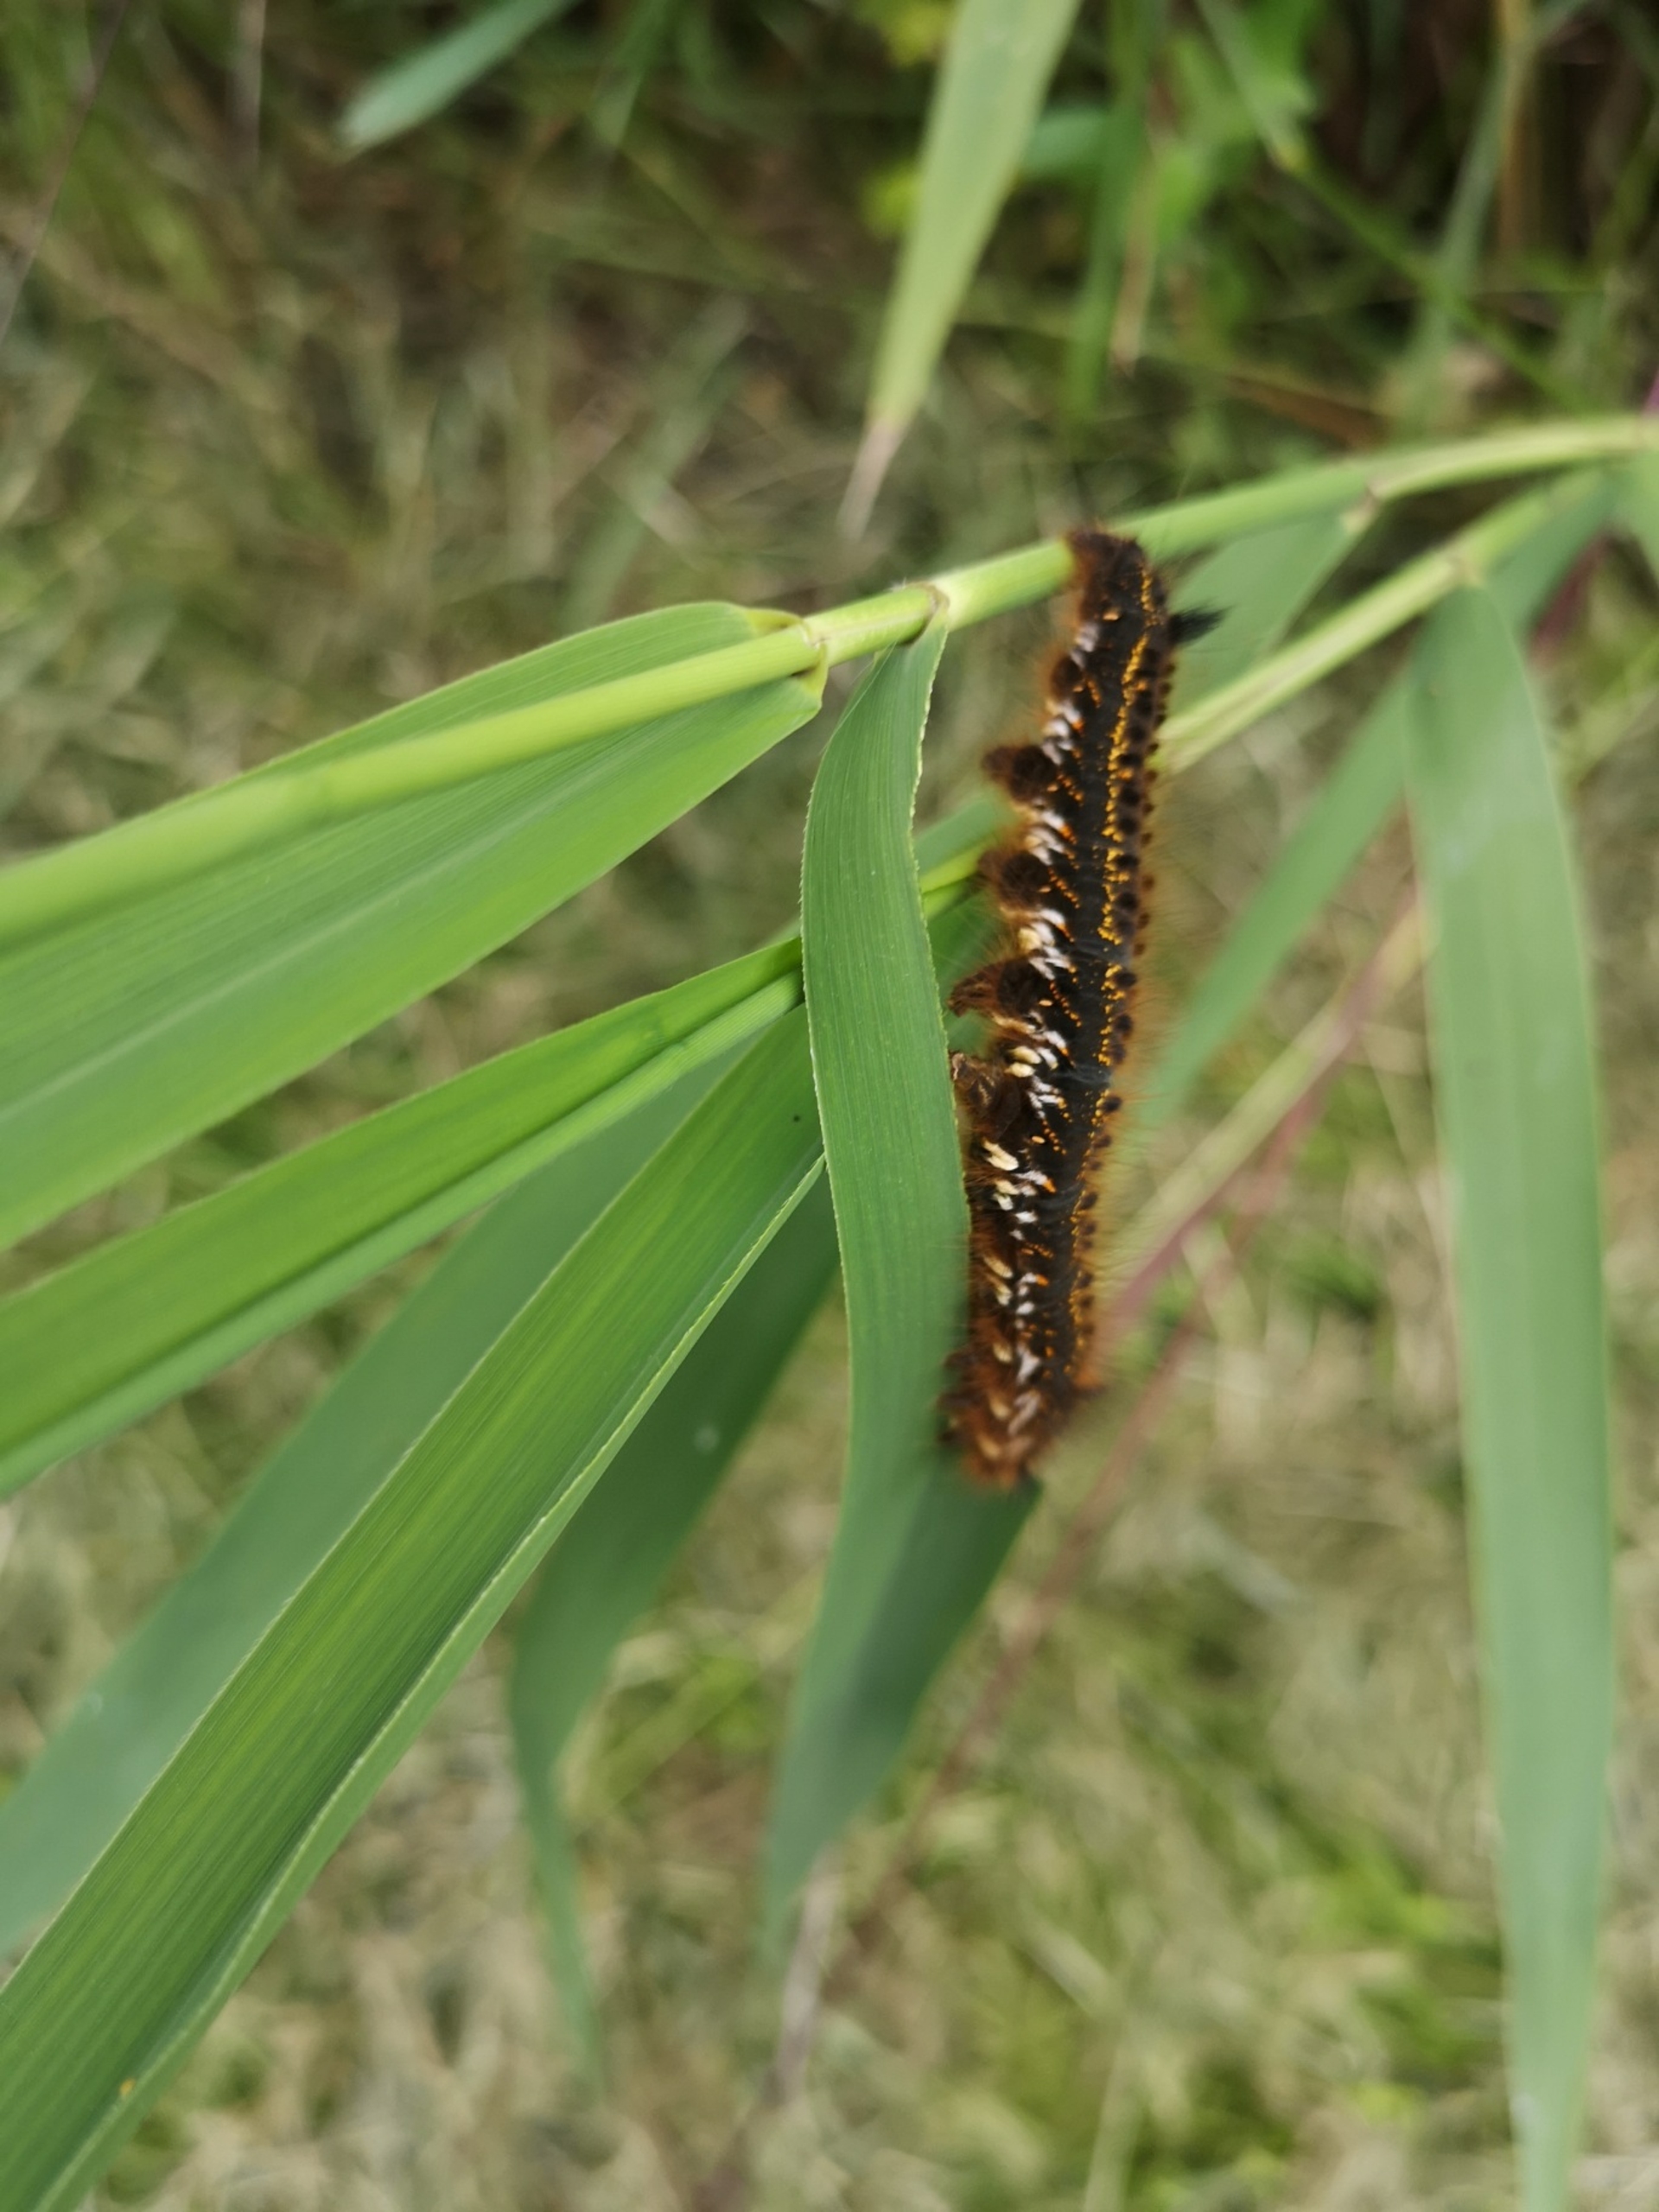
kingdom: Animalia
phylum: Arthropoda
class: Insecta
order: Lepidoptera
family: Lasiocampidae
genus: Euthrix
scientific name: Euthrix potatoria
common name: Græsspinder
